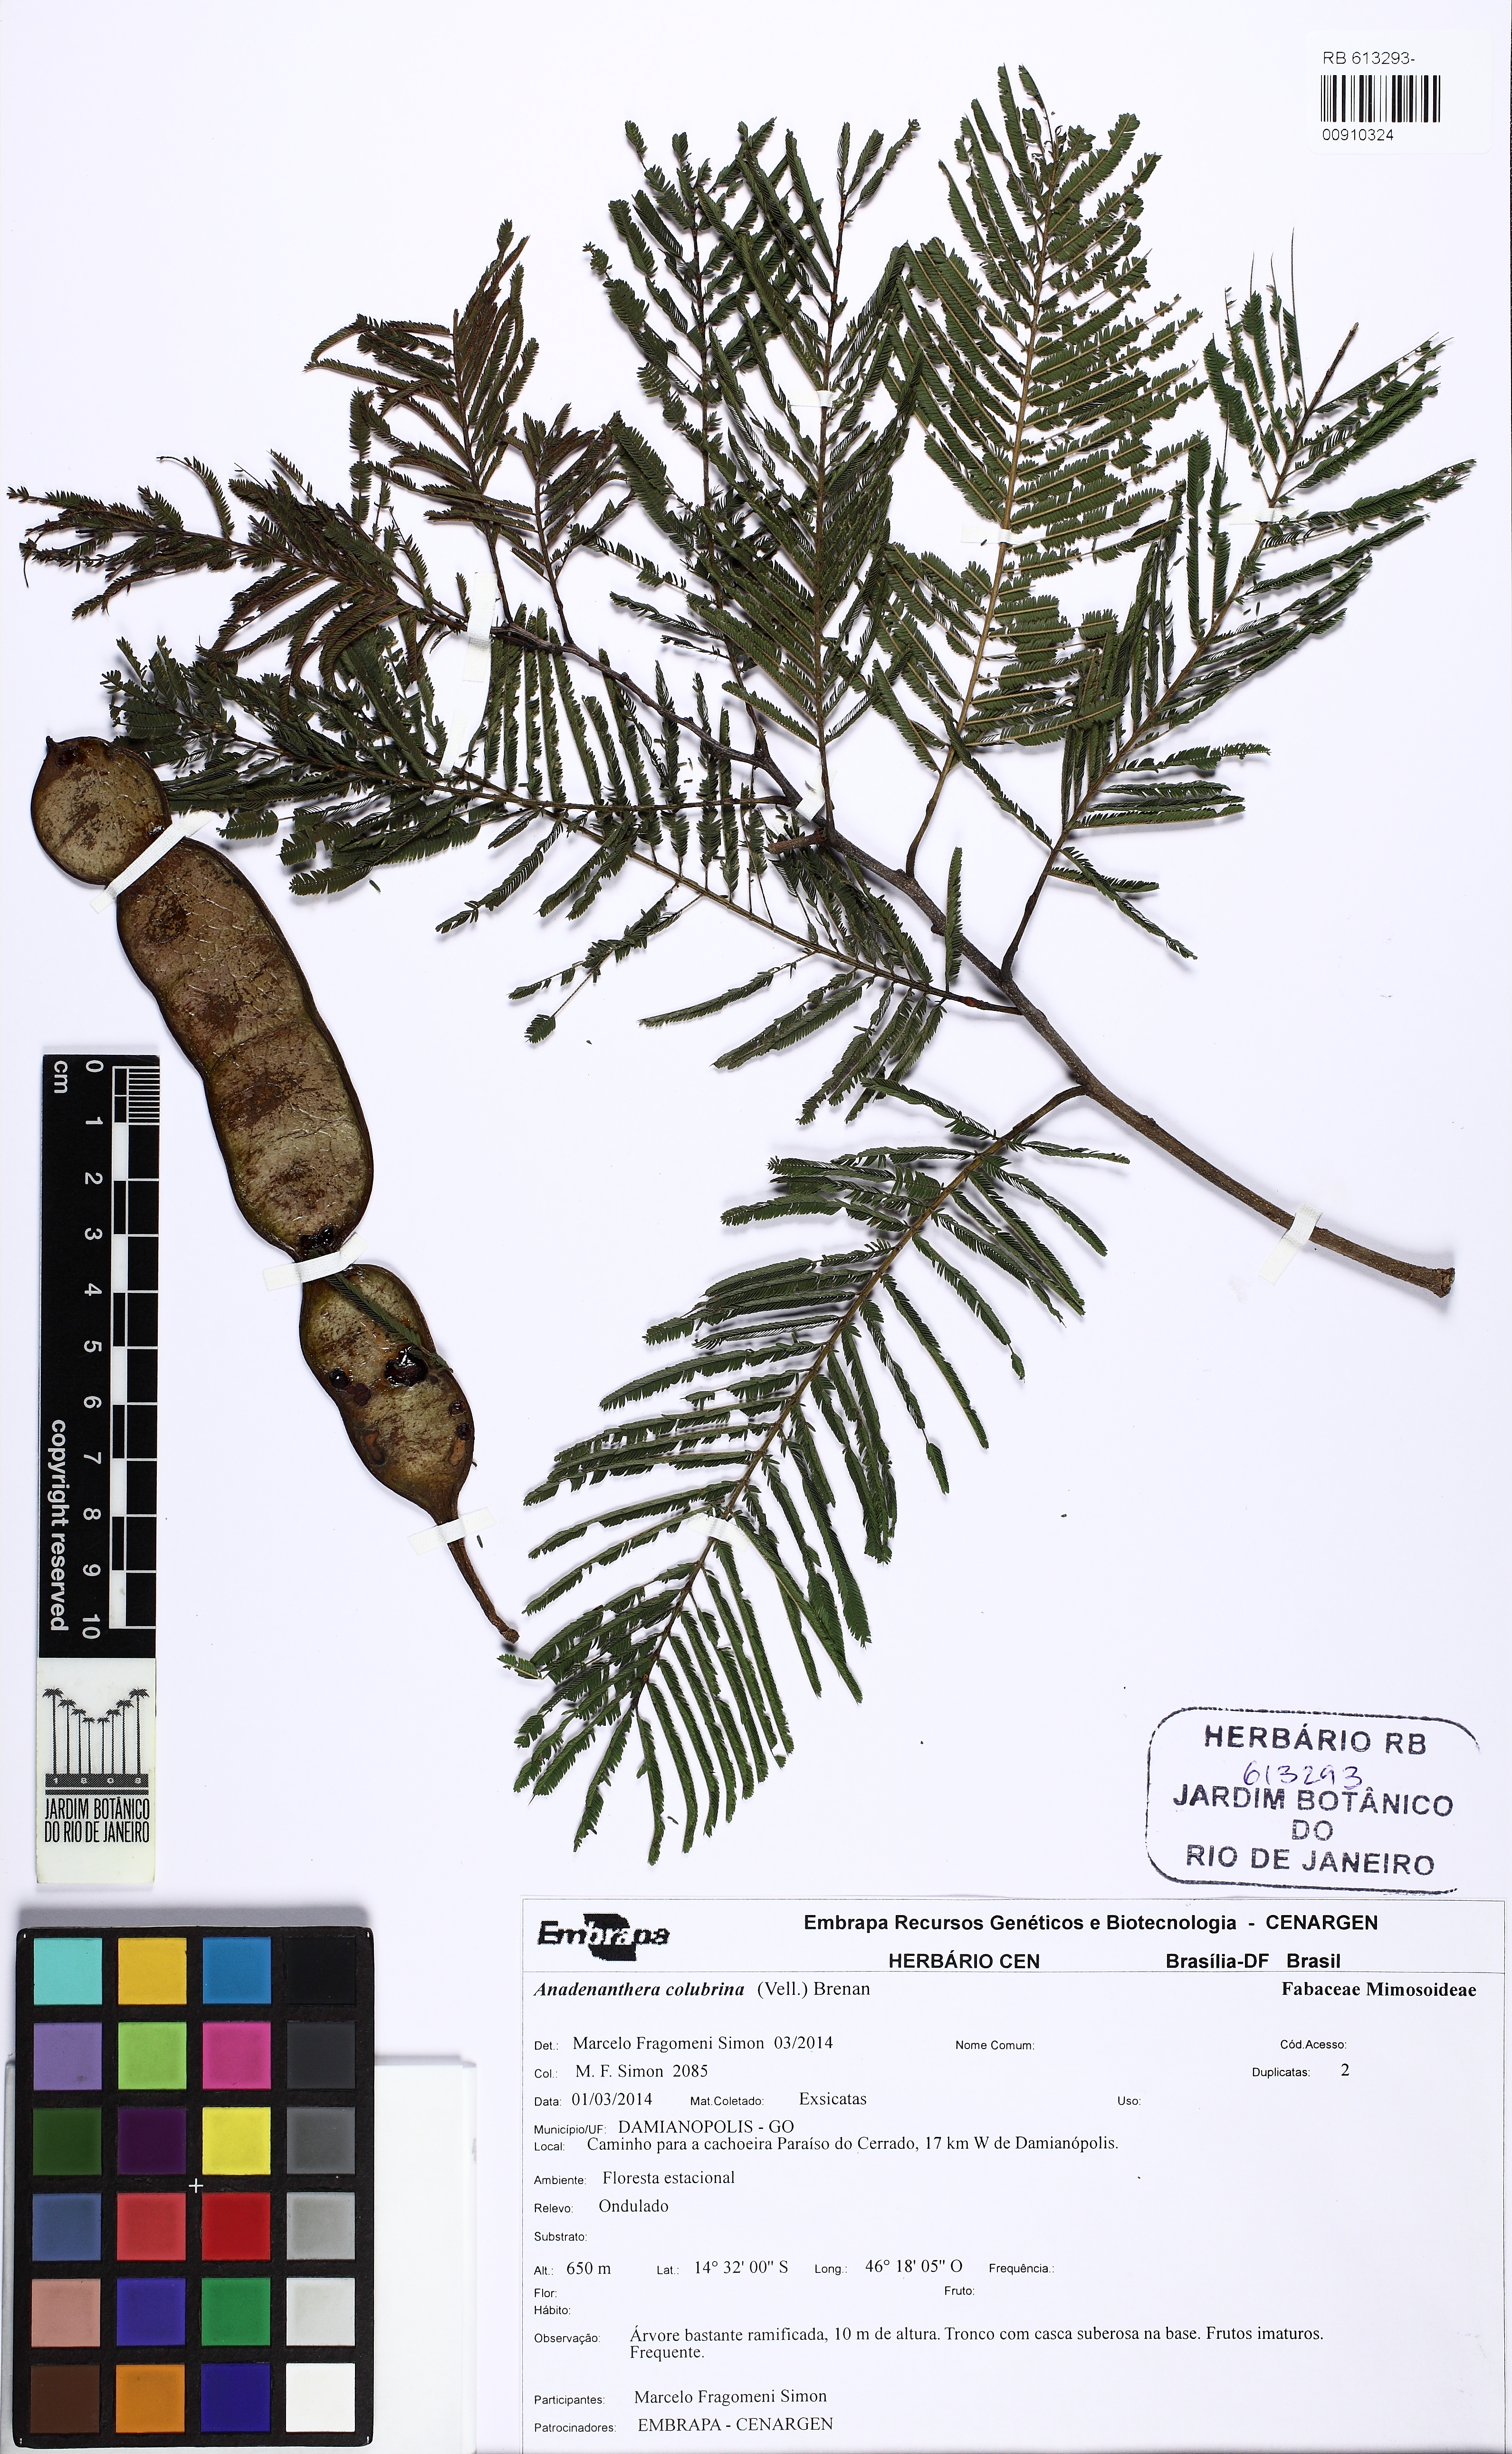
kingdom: Plantae
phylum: Tracheophyta
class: Magnoliopsida
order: Fabales
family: Fabaceae
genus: Anadenanthera
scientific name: Anadenanthera colubrina
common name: Curupay
